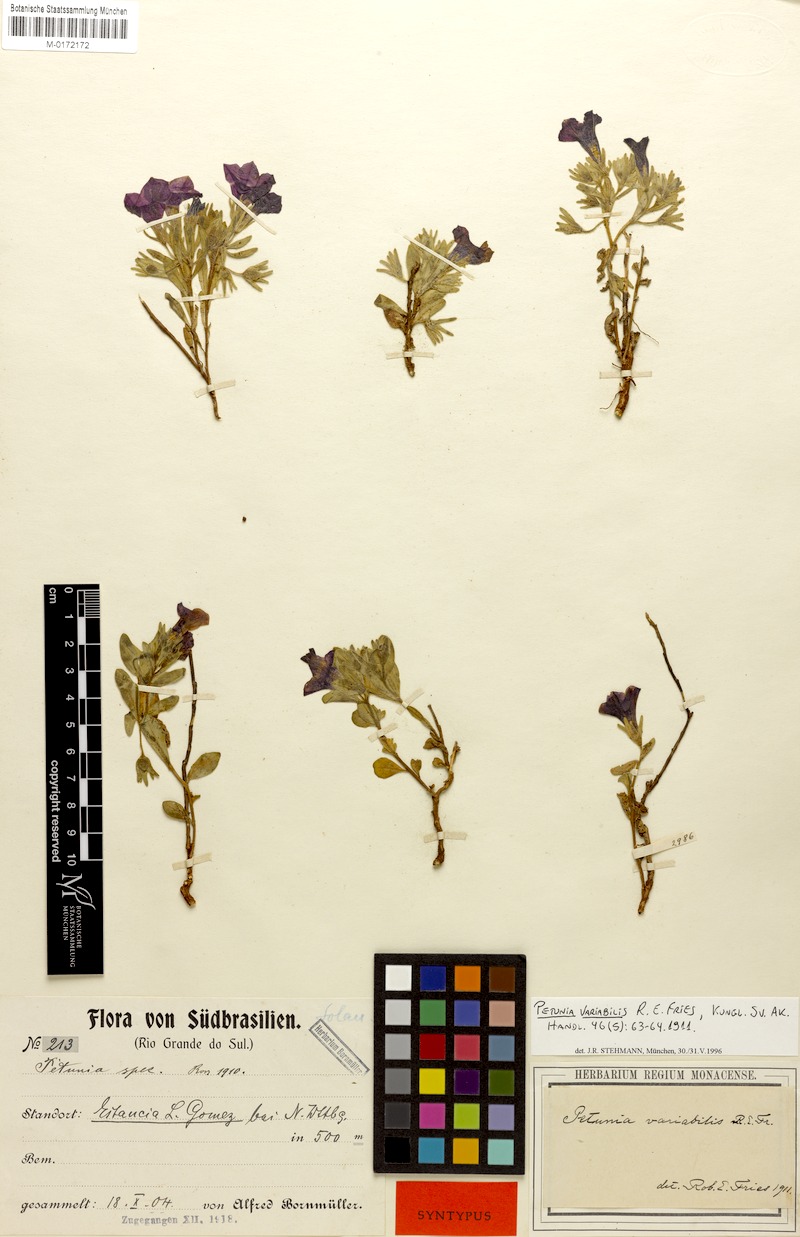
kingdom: Plantae
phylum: Tracheophyta
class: Magnoliopsida
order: Solanales
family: Solanaceae
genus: Calibrachoa
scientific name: Calibrachoa excellens
